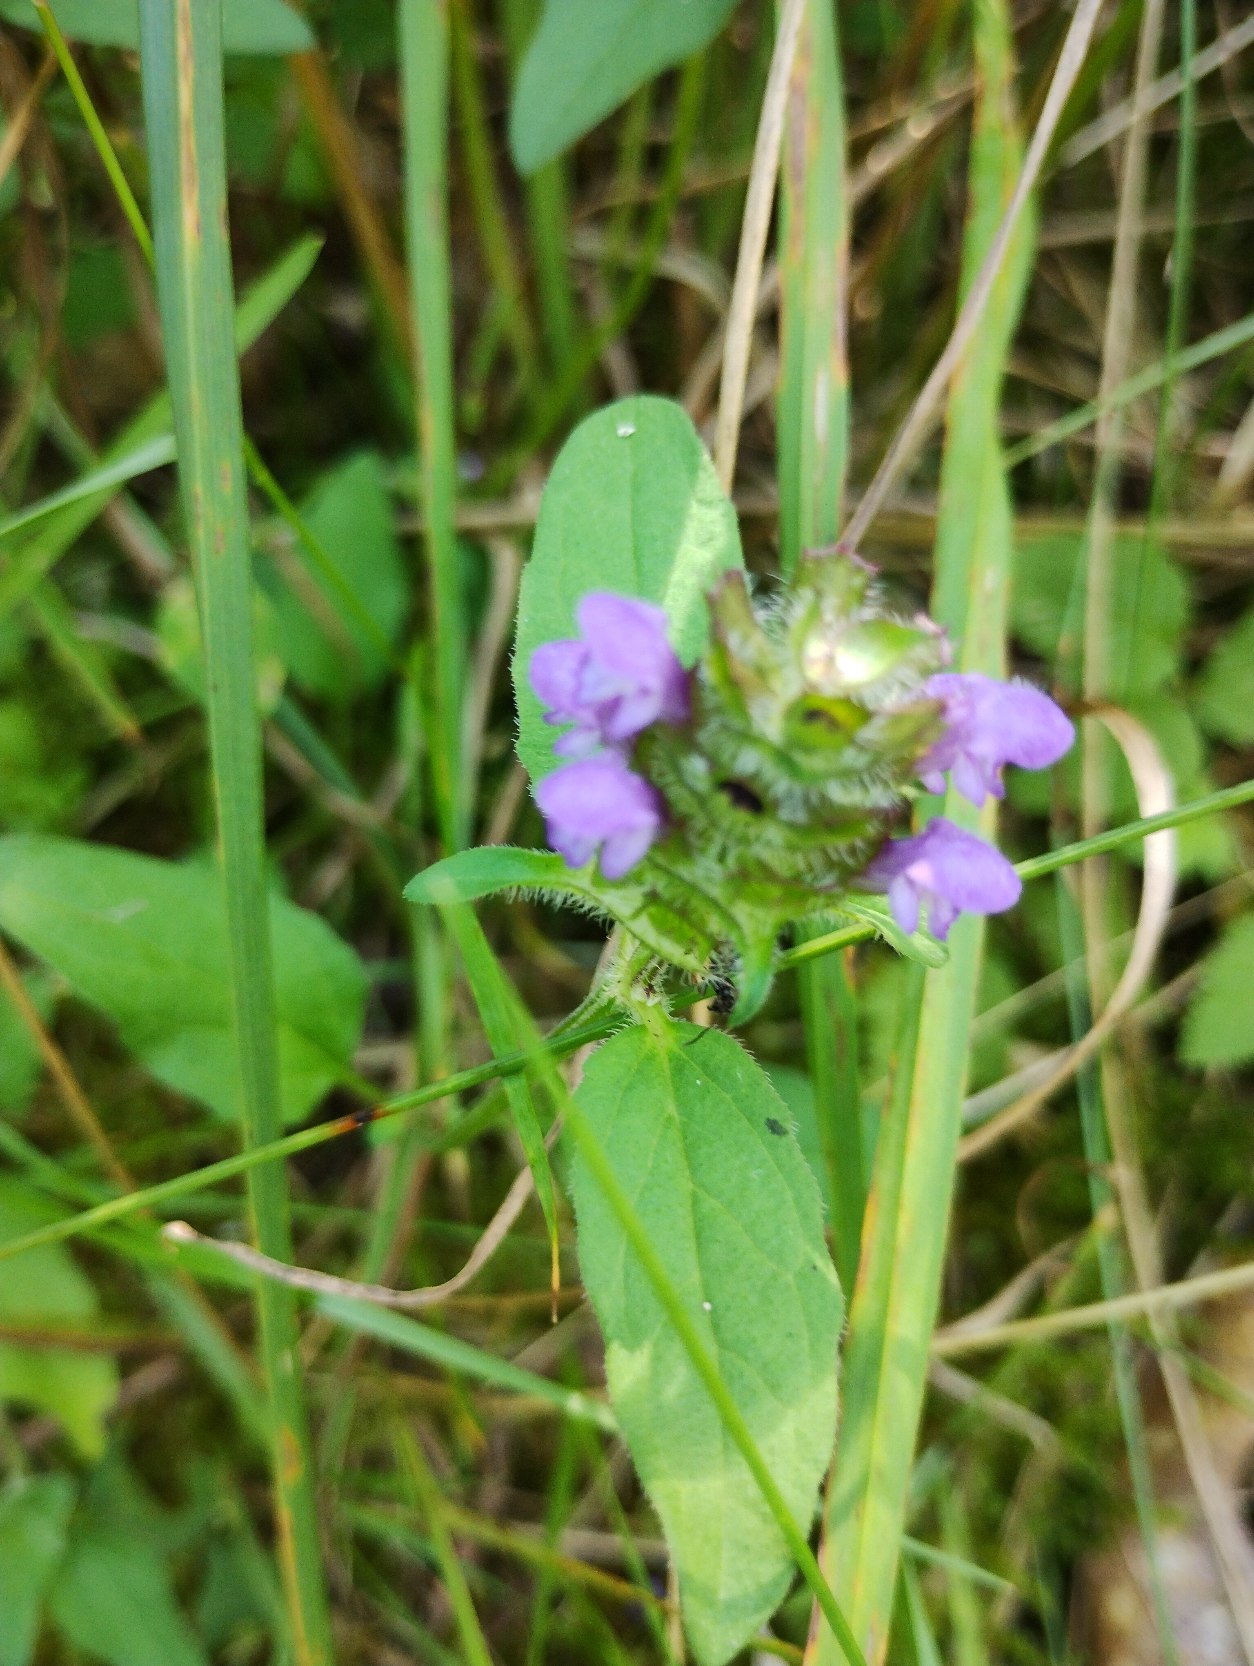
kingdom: Plantae
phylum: Tracheophyta
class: Magnoliopsida
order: Lamiales
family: Lamiaceae
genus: Prunella
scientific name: Prunella vulgaris
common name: Almindelig brunelle
